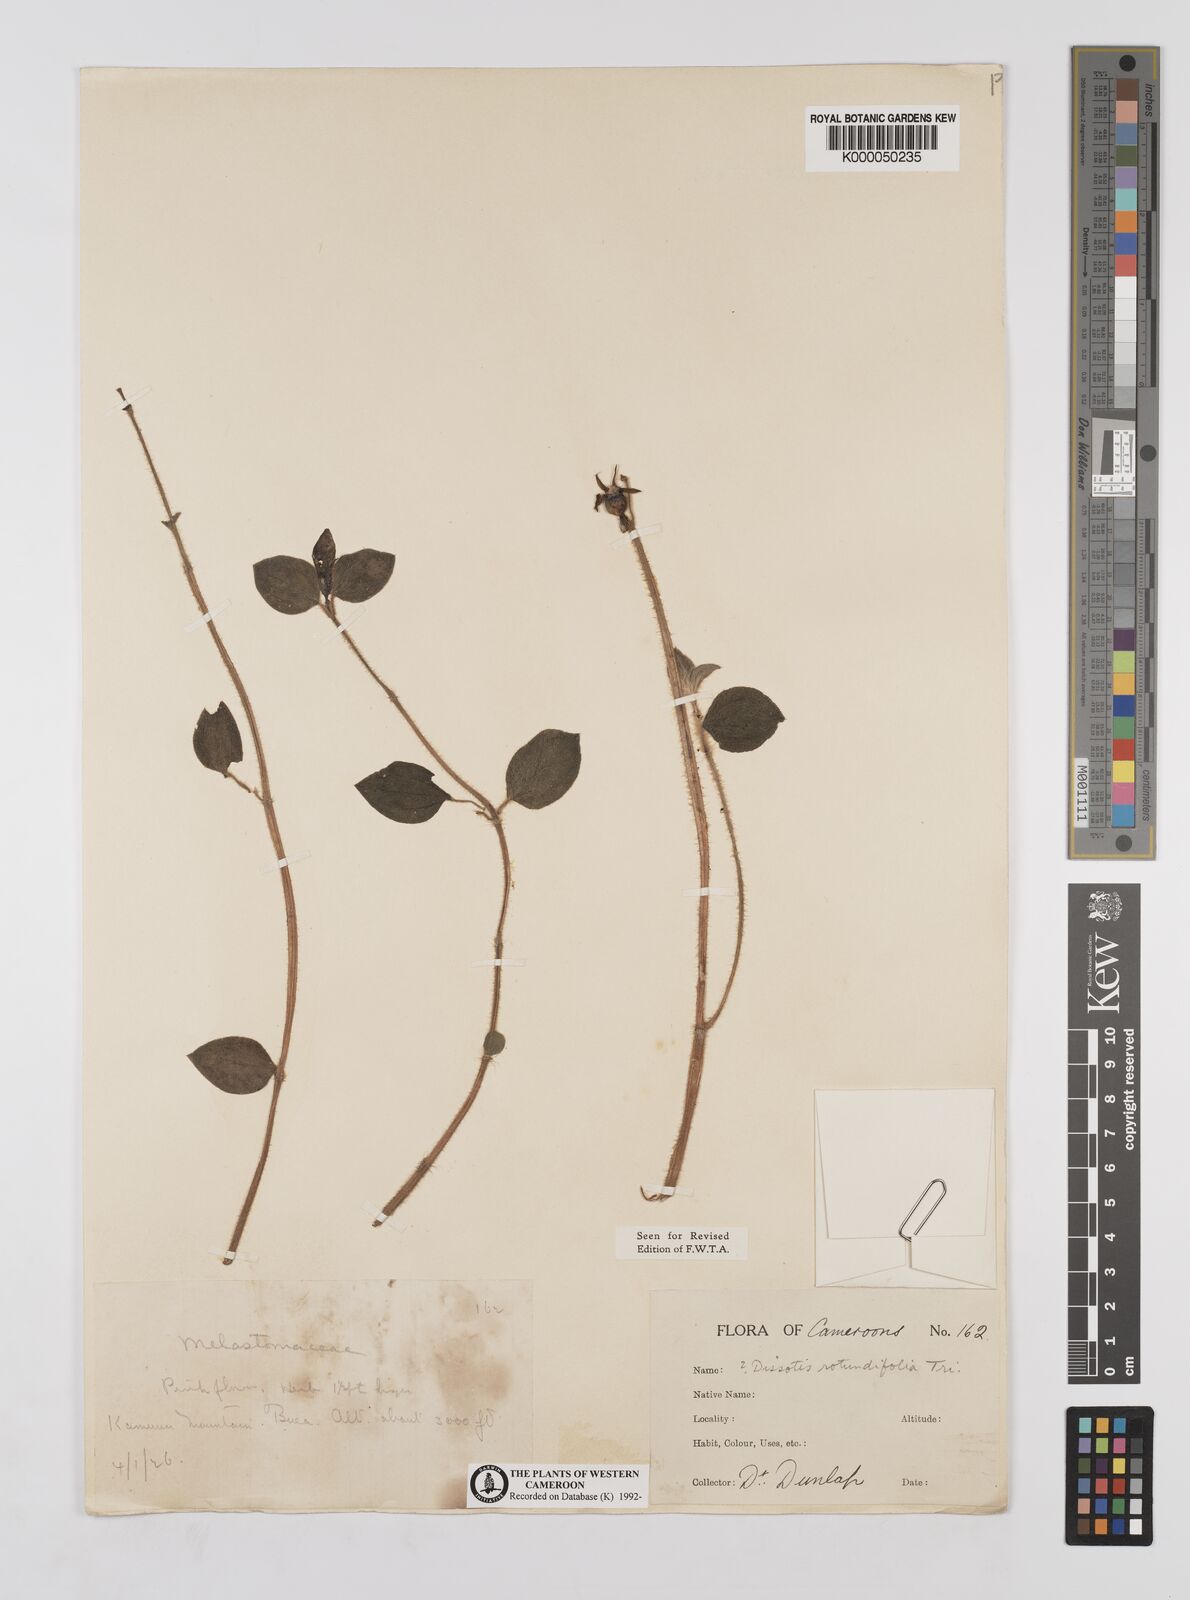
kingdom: Plantae
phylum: Tracheophyta
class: Magnoliopsida
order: Myrtales
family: Melastomataceae
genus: Heterotis
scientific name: Heterotis rotundifolia
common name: Pinklady
